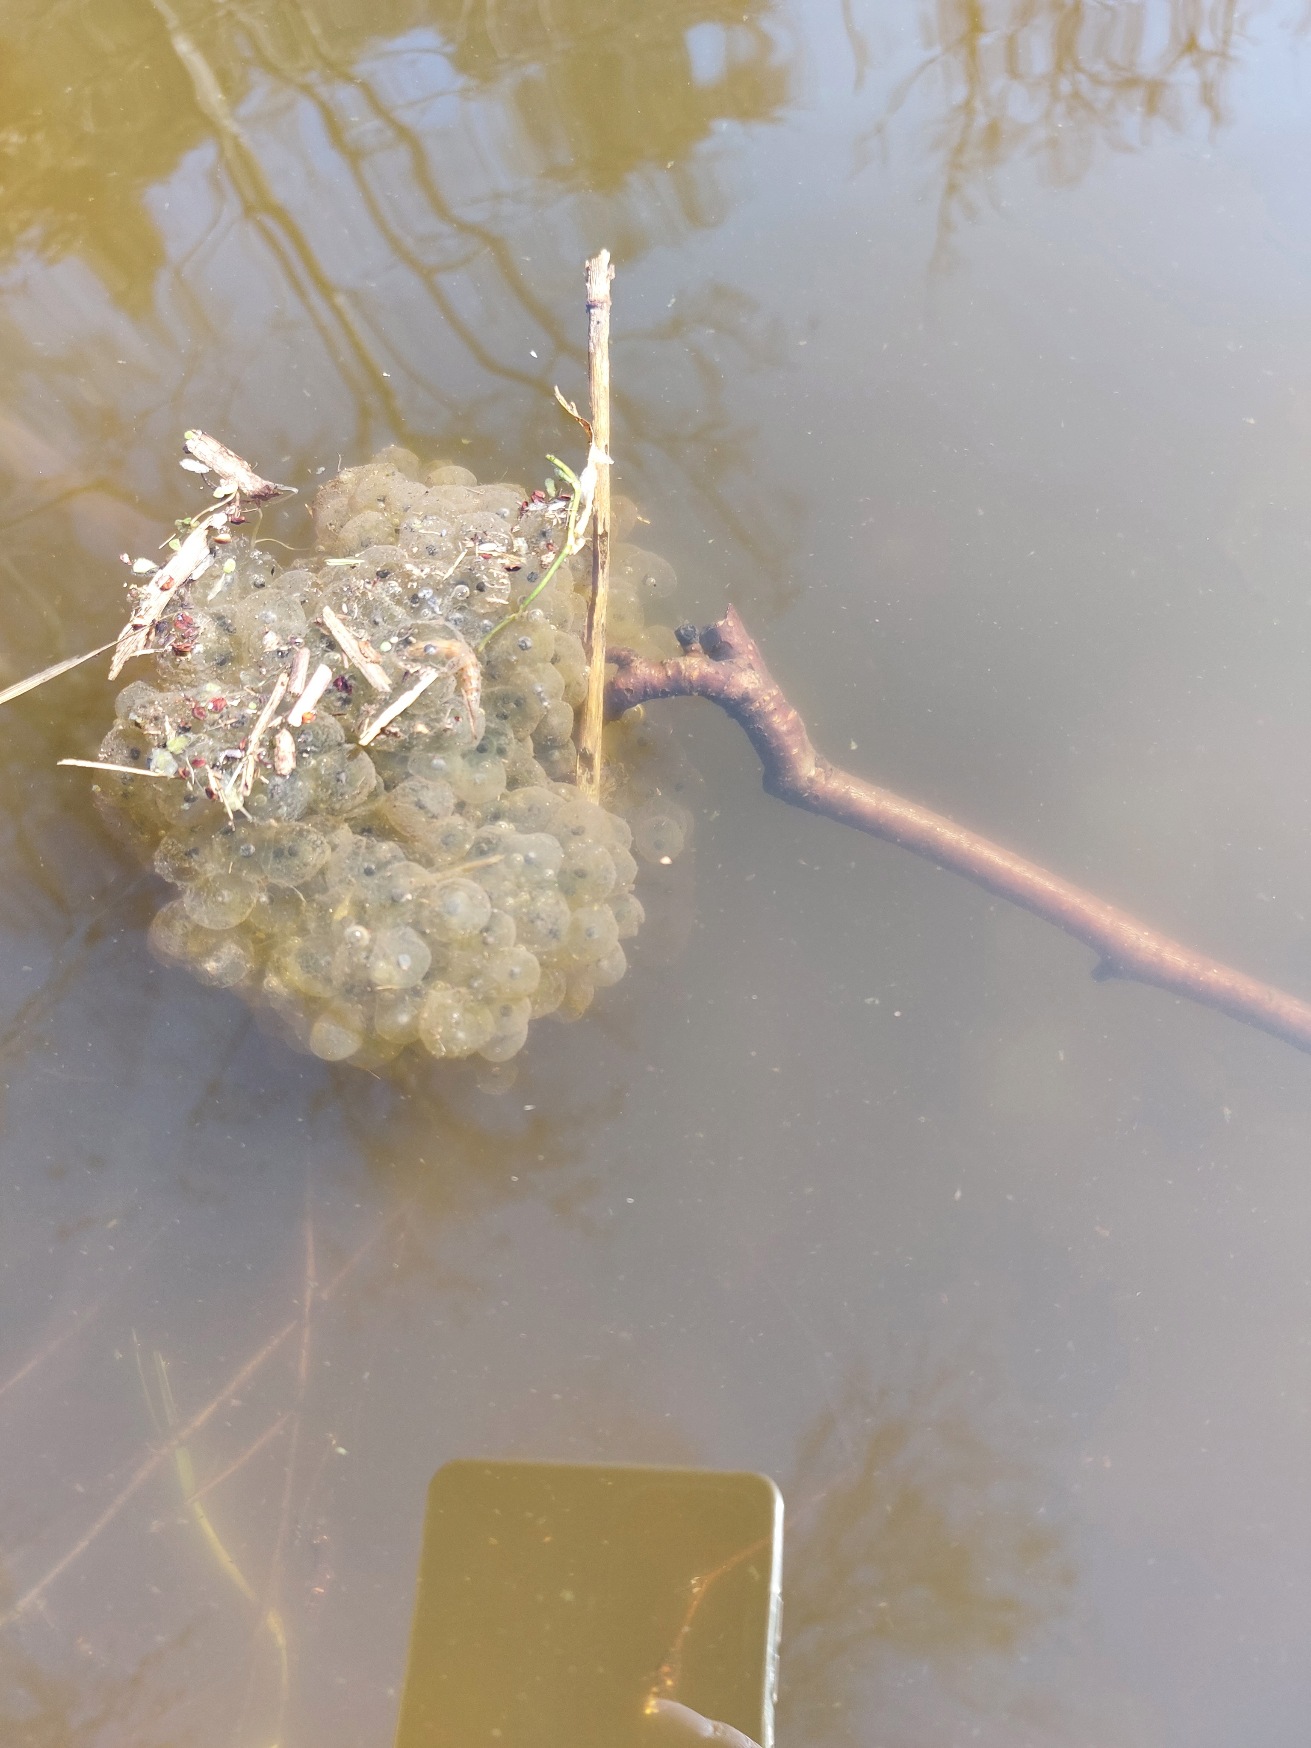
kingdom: Animalia
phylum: Chordata
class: Amphibia
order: Anura
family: Ranidae
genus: Rana
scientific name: Rana dalmatina
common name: Springfrø
